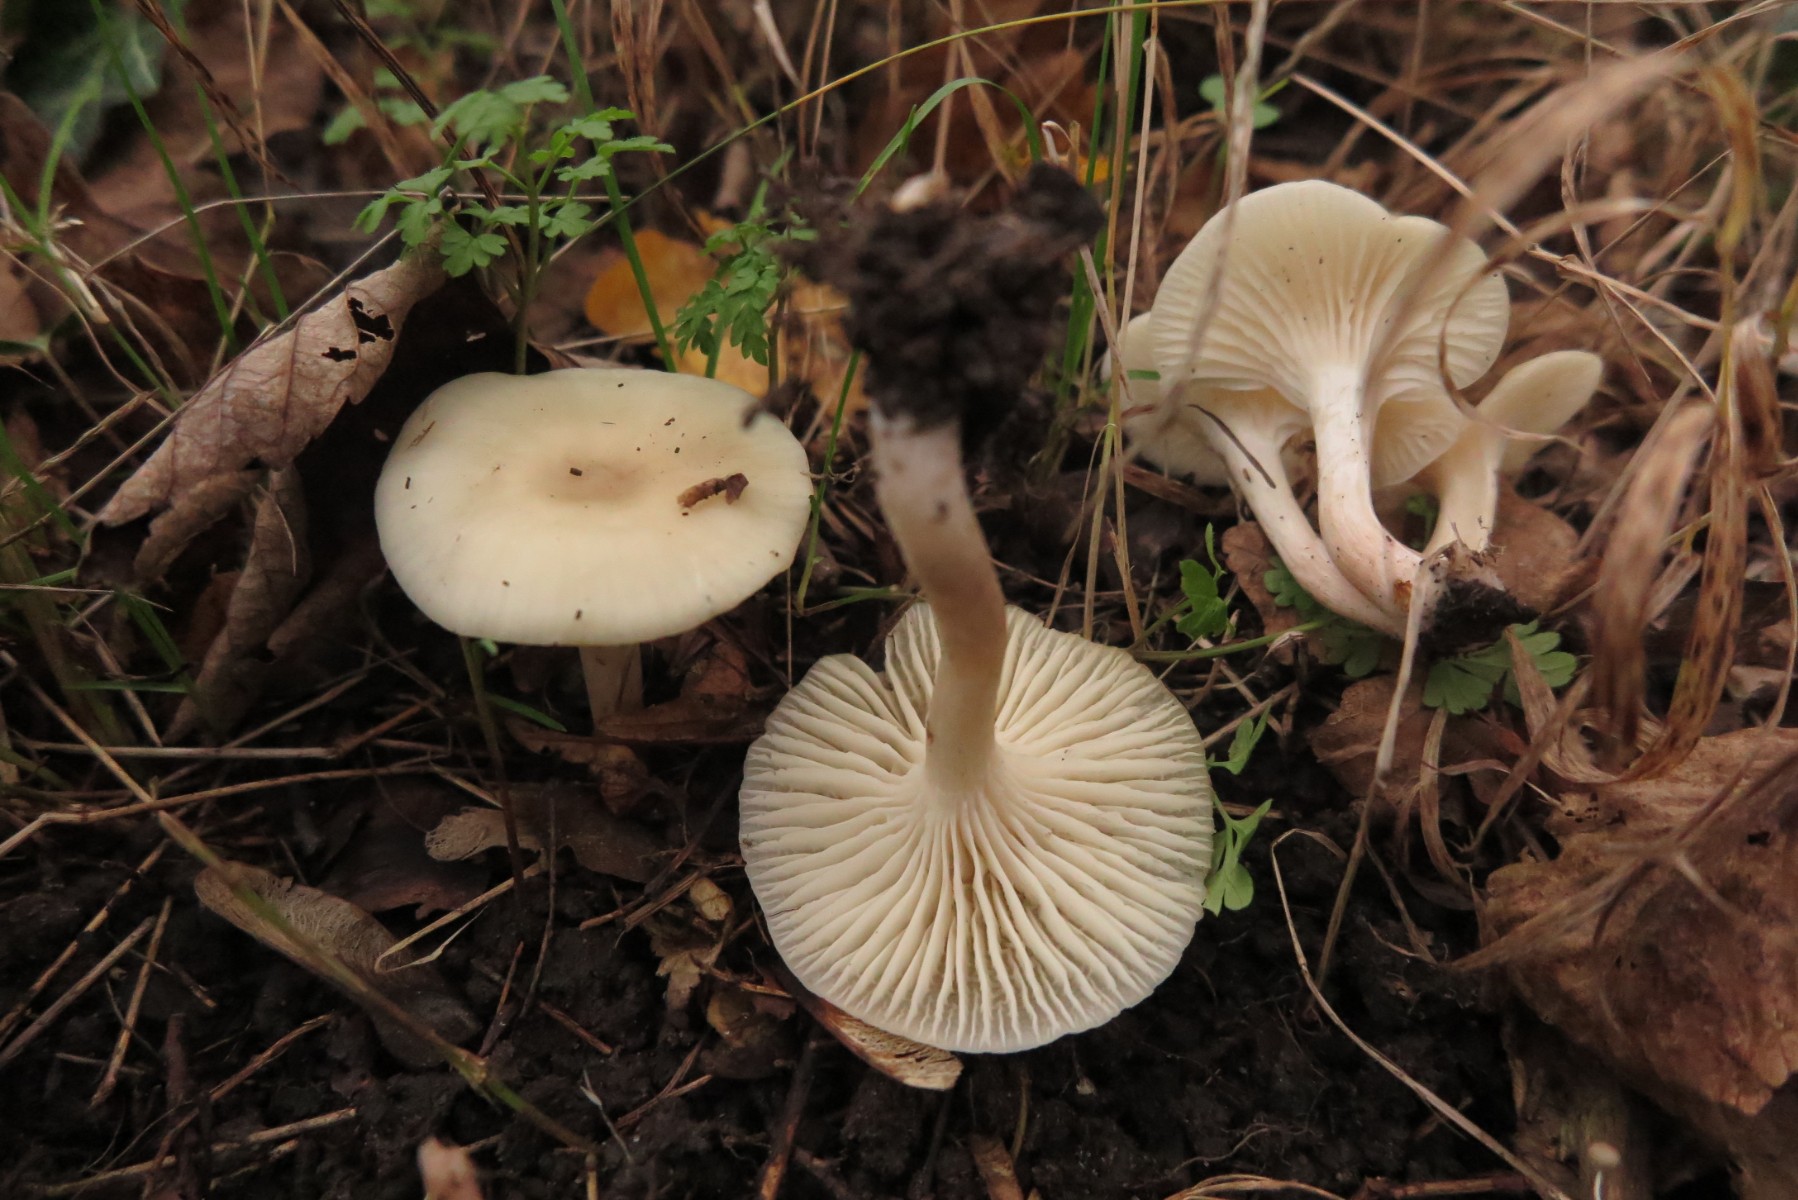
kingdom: Fungi
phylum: Basidiomycota
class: Agaricomycetes
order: Agaricales
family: Tricholomataceae
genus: Clitocybe
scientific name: Clitocybe
